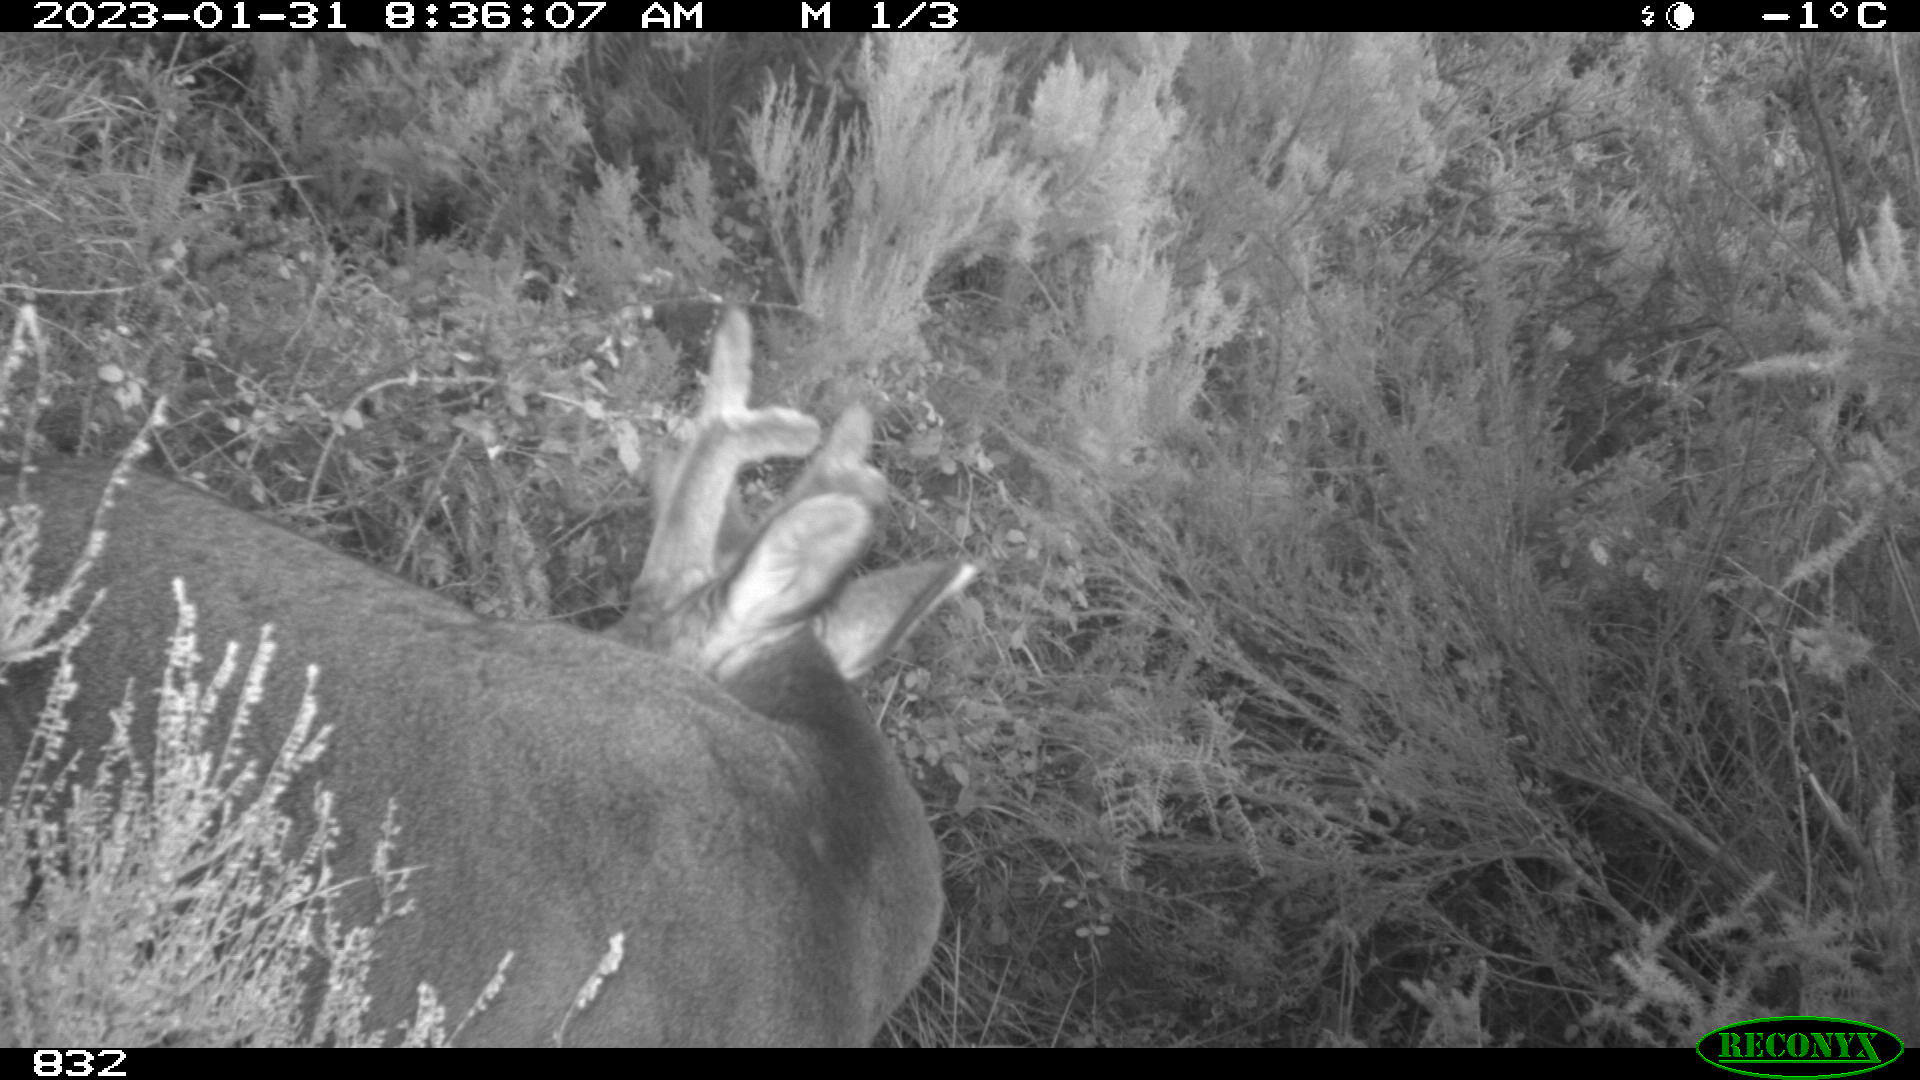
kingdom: Animalia
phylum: Chordata
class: Mammalia
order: Artiodactyla
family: Cervidae
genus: Capreolus
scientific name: Capreolus capreolus
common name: Western roe deer
